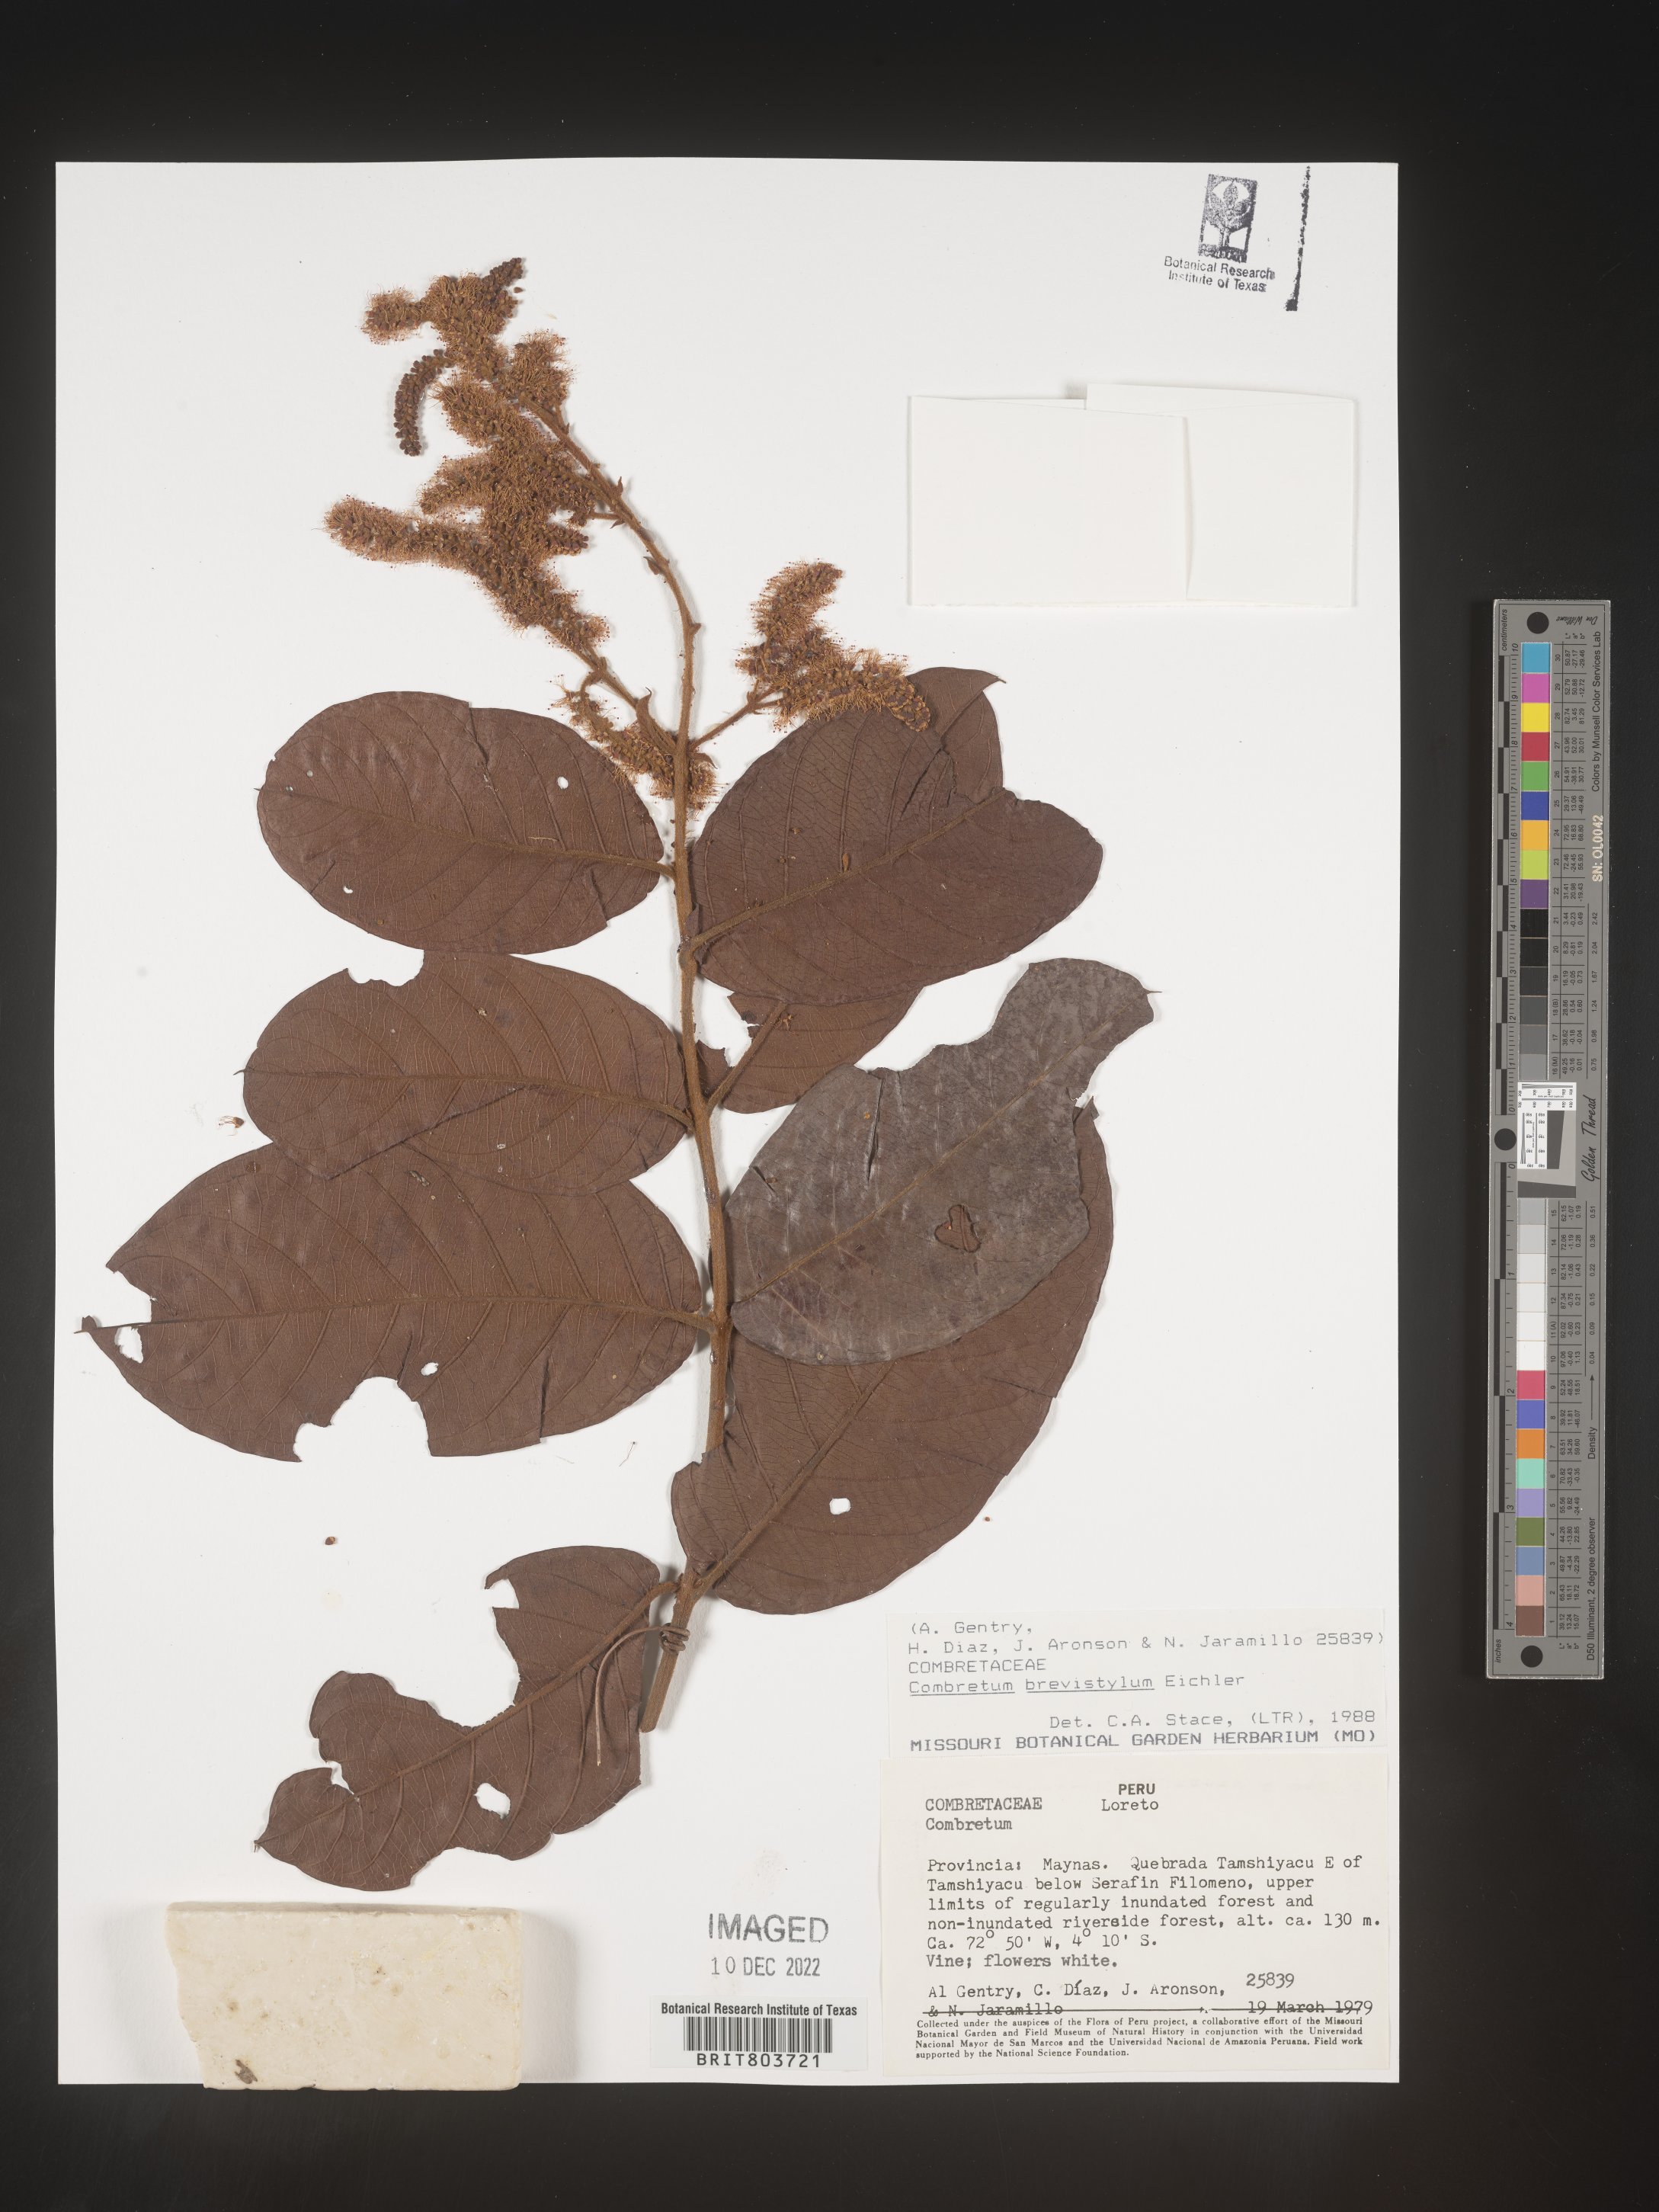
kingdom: Plantae
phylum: Tracheophyta
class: Magnoliopsida
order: Myrtales
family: Combretaceae
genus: Combretum
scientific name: Combretum
